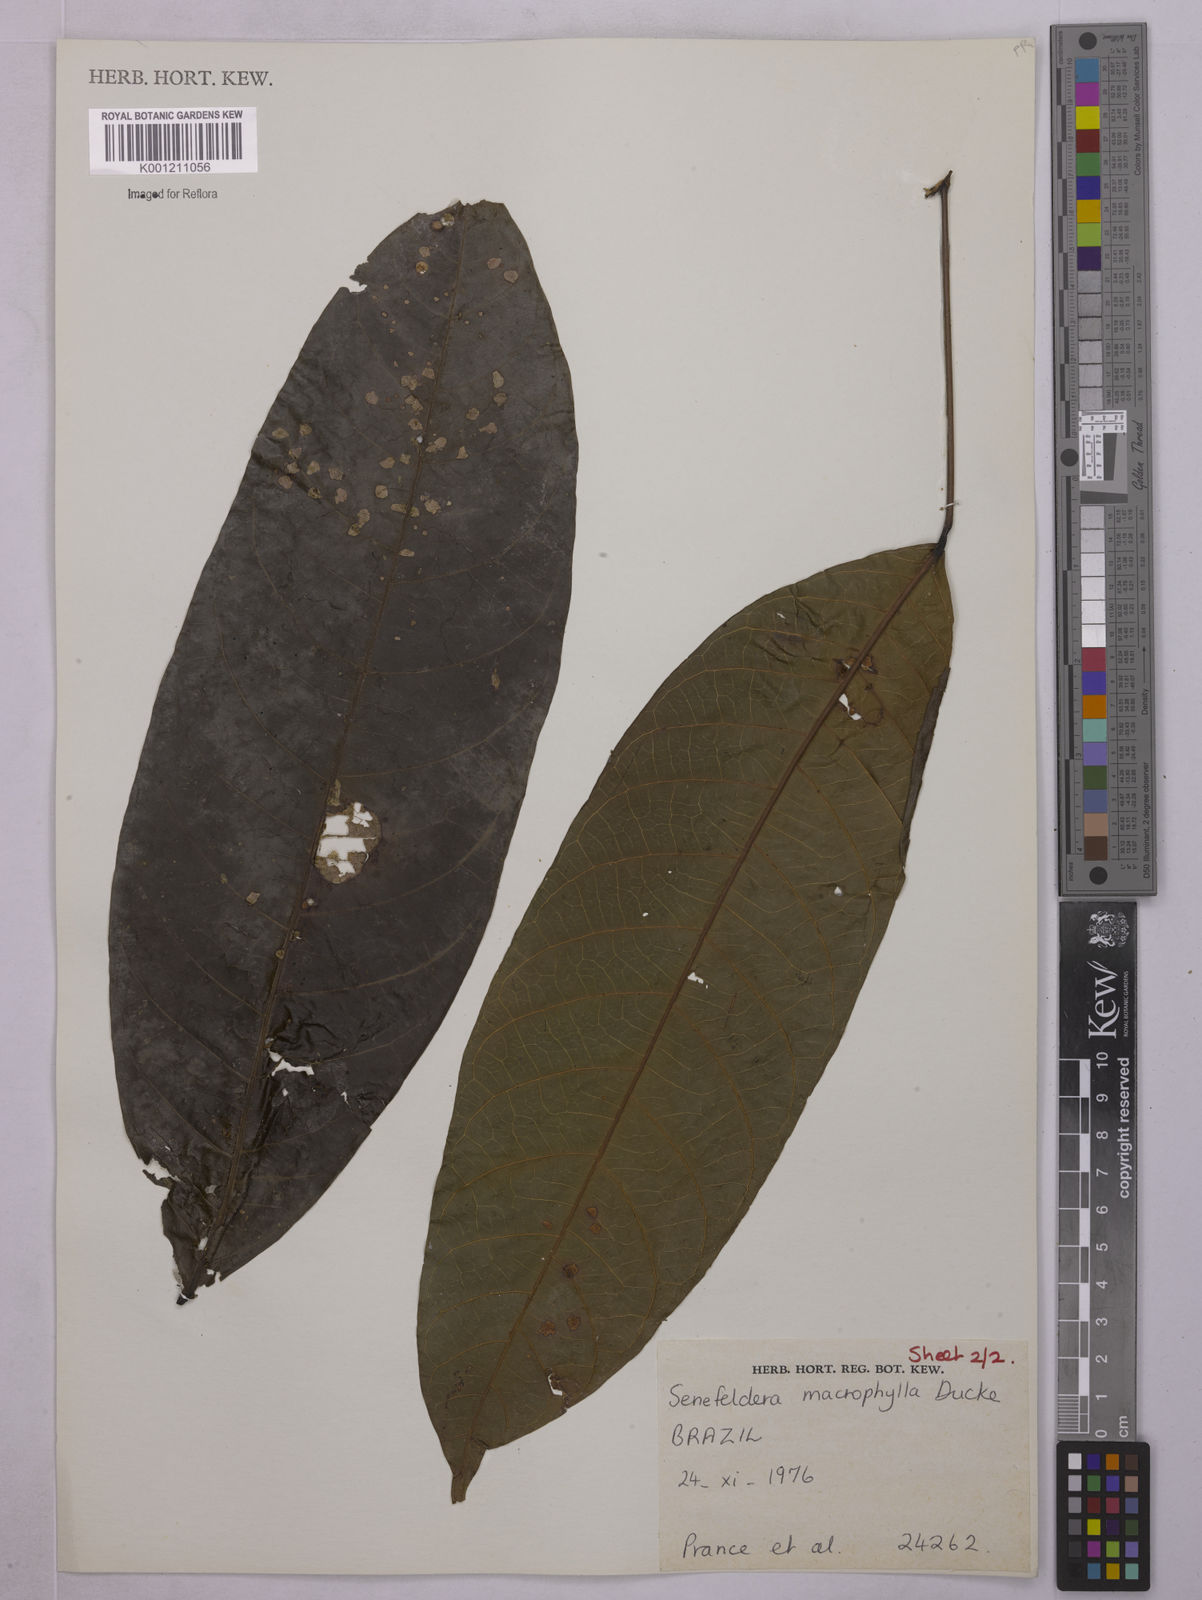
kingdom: Plantae
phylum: Tracheophyta
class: Magnoliopsida
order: Malpighiales
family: Euphorbiaceae
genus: Rhodothyrsus
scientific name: Rhodothyrsus macrophyllus
